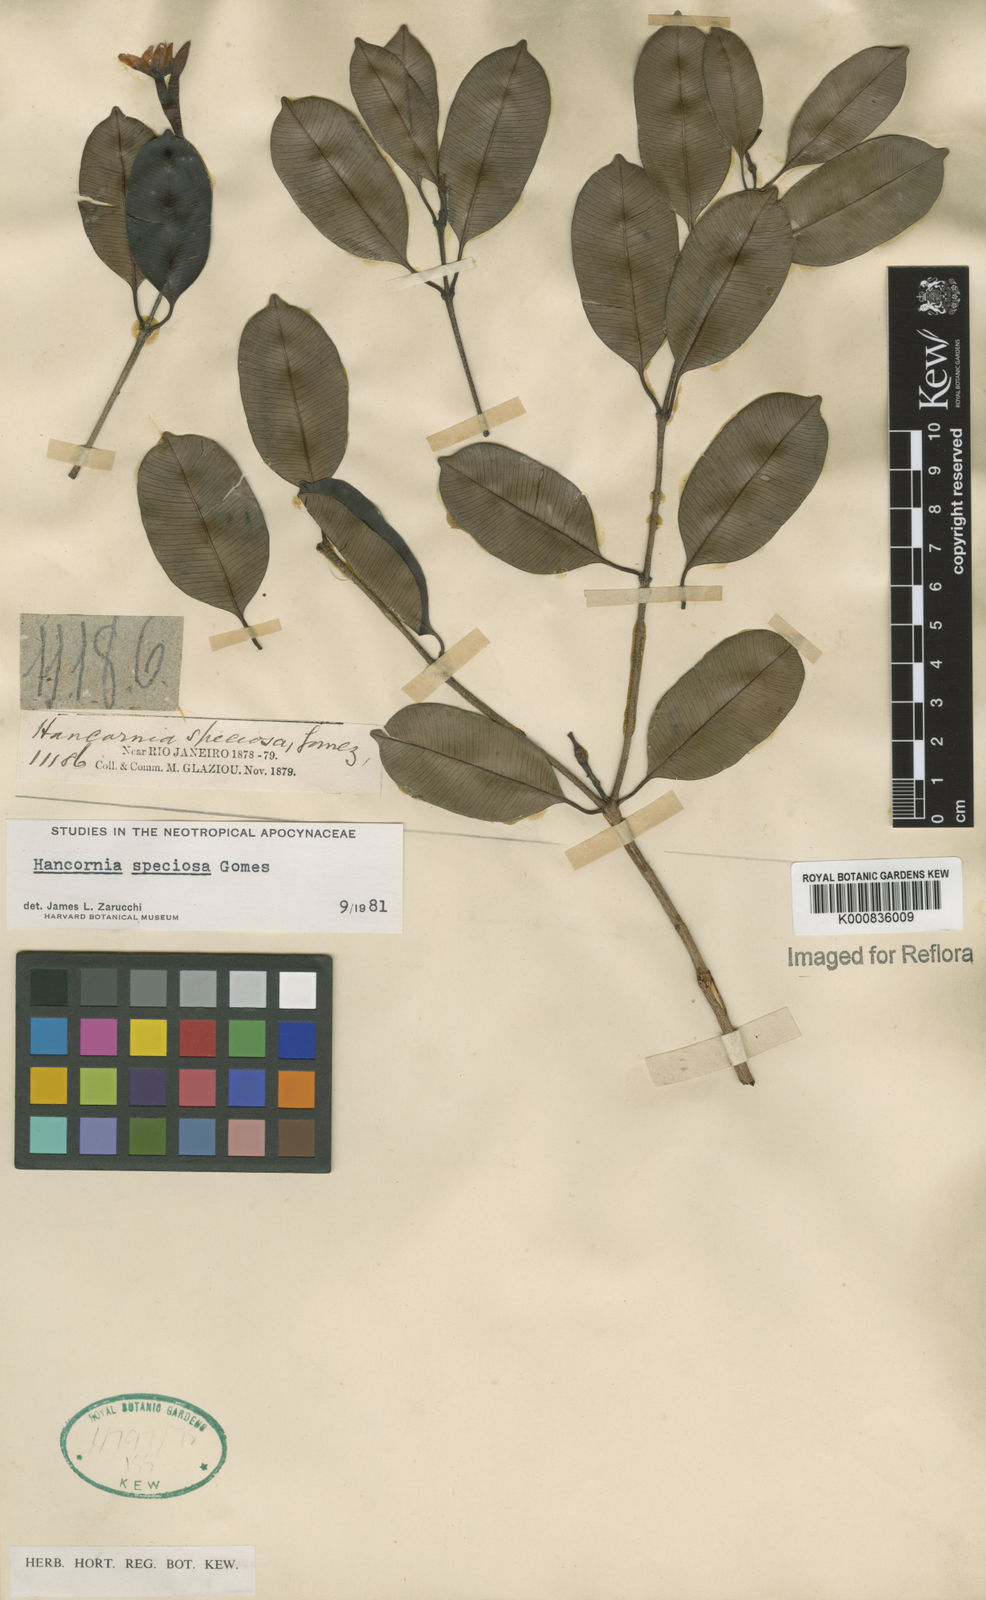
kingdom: Plantae
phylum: Tracheophyta
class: Magnoliopsida
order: Gentianales
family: Apocynaceae
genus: Hancornia
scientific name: Hancornia speciosa
